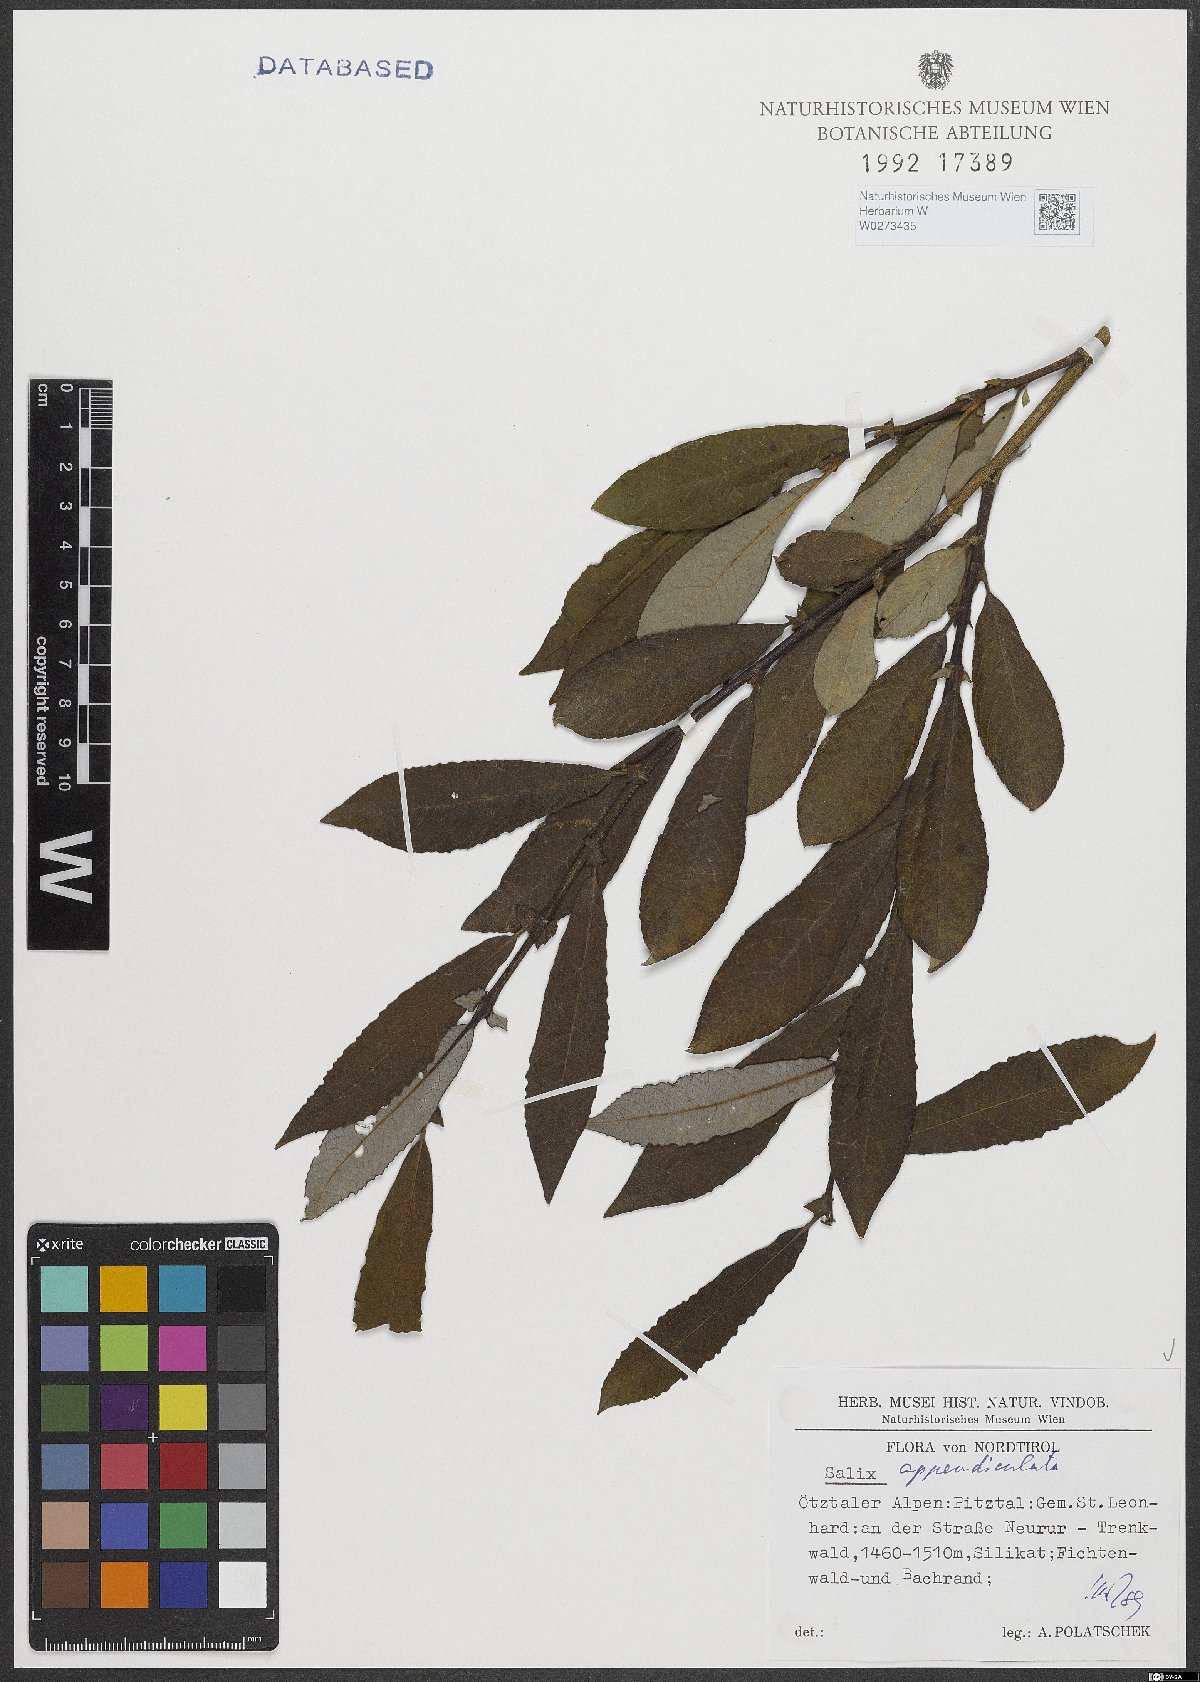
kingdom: Plantae
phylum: Tracheophyta
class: Magnoliopsida
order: Malpighiales
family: Salicaceae
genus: Salix
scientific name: Salix appendiculata
